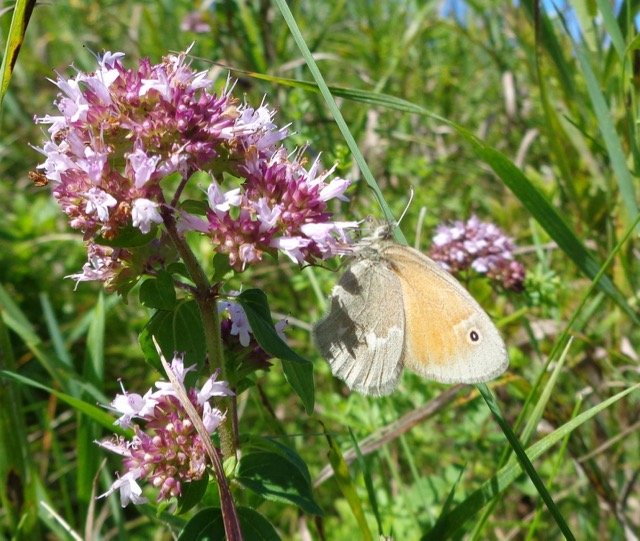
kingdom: Animalia
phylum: Arthropoda
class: Insecta
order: Lepidoptera
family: Nymphalidae
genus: Coenonympha
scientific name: Coenonympha tullia
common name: Large Heath
